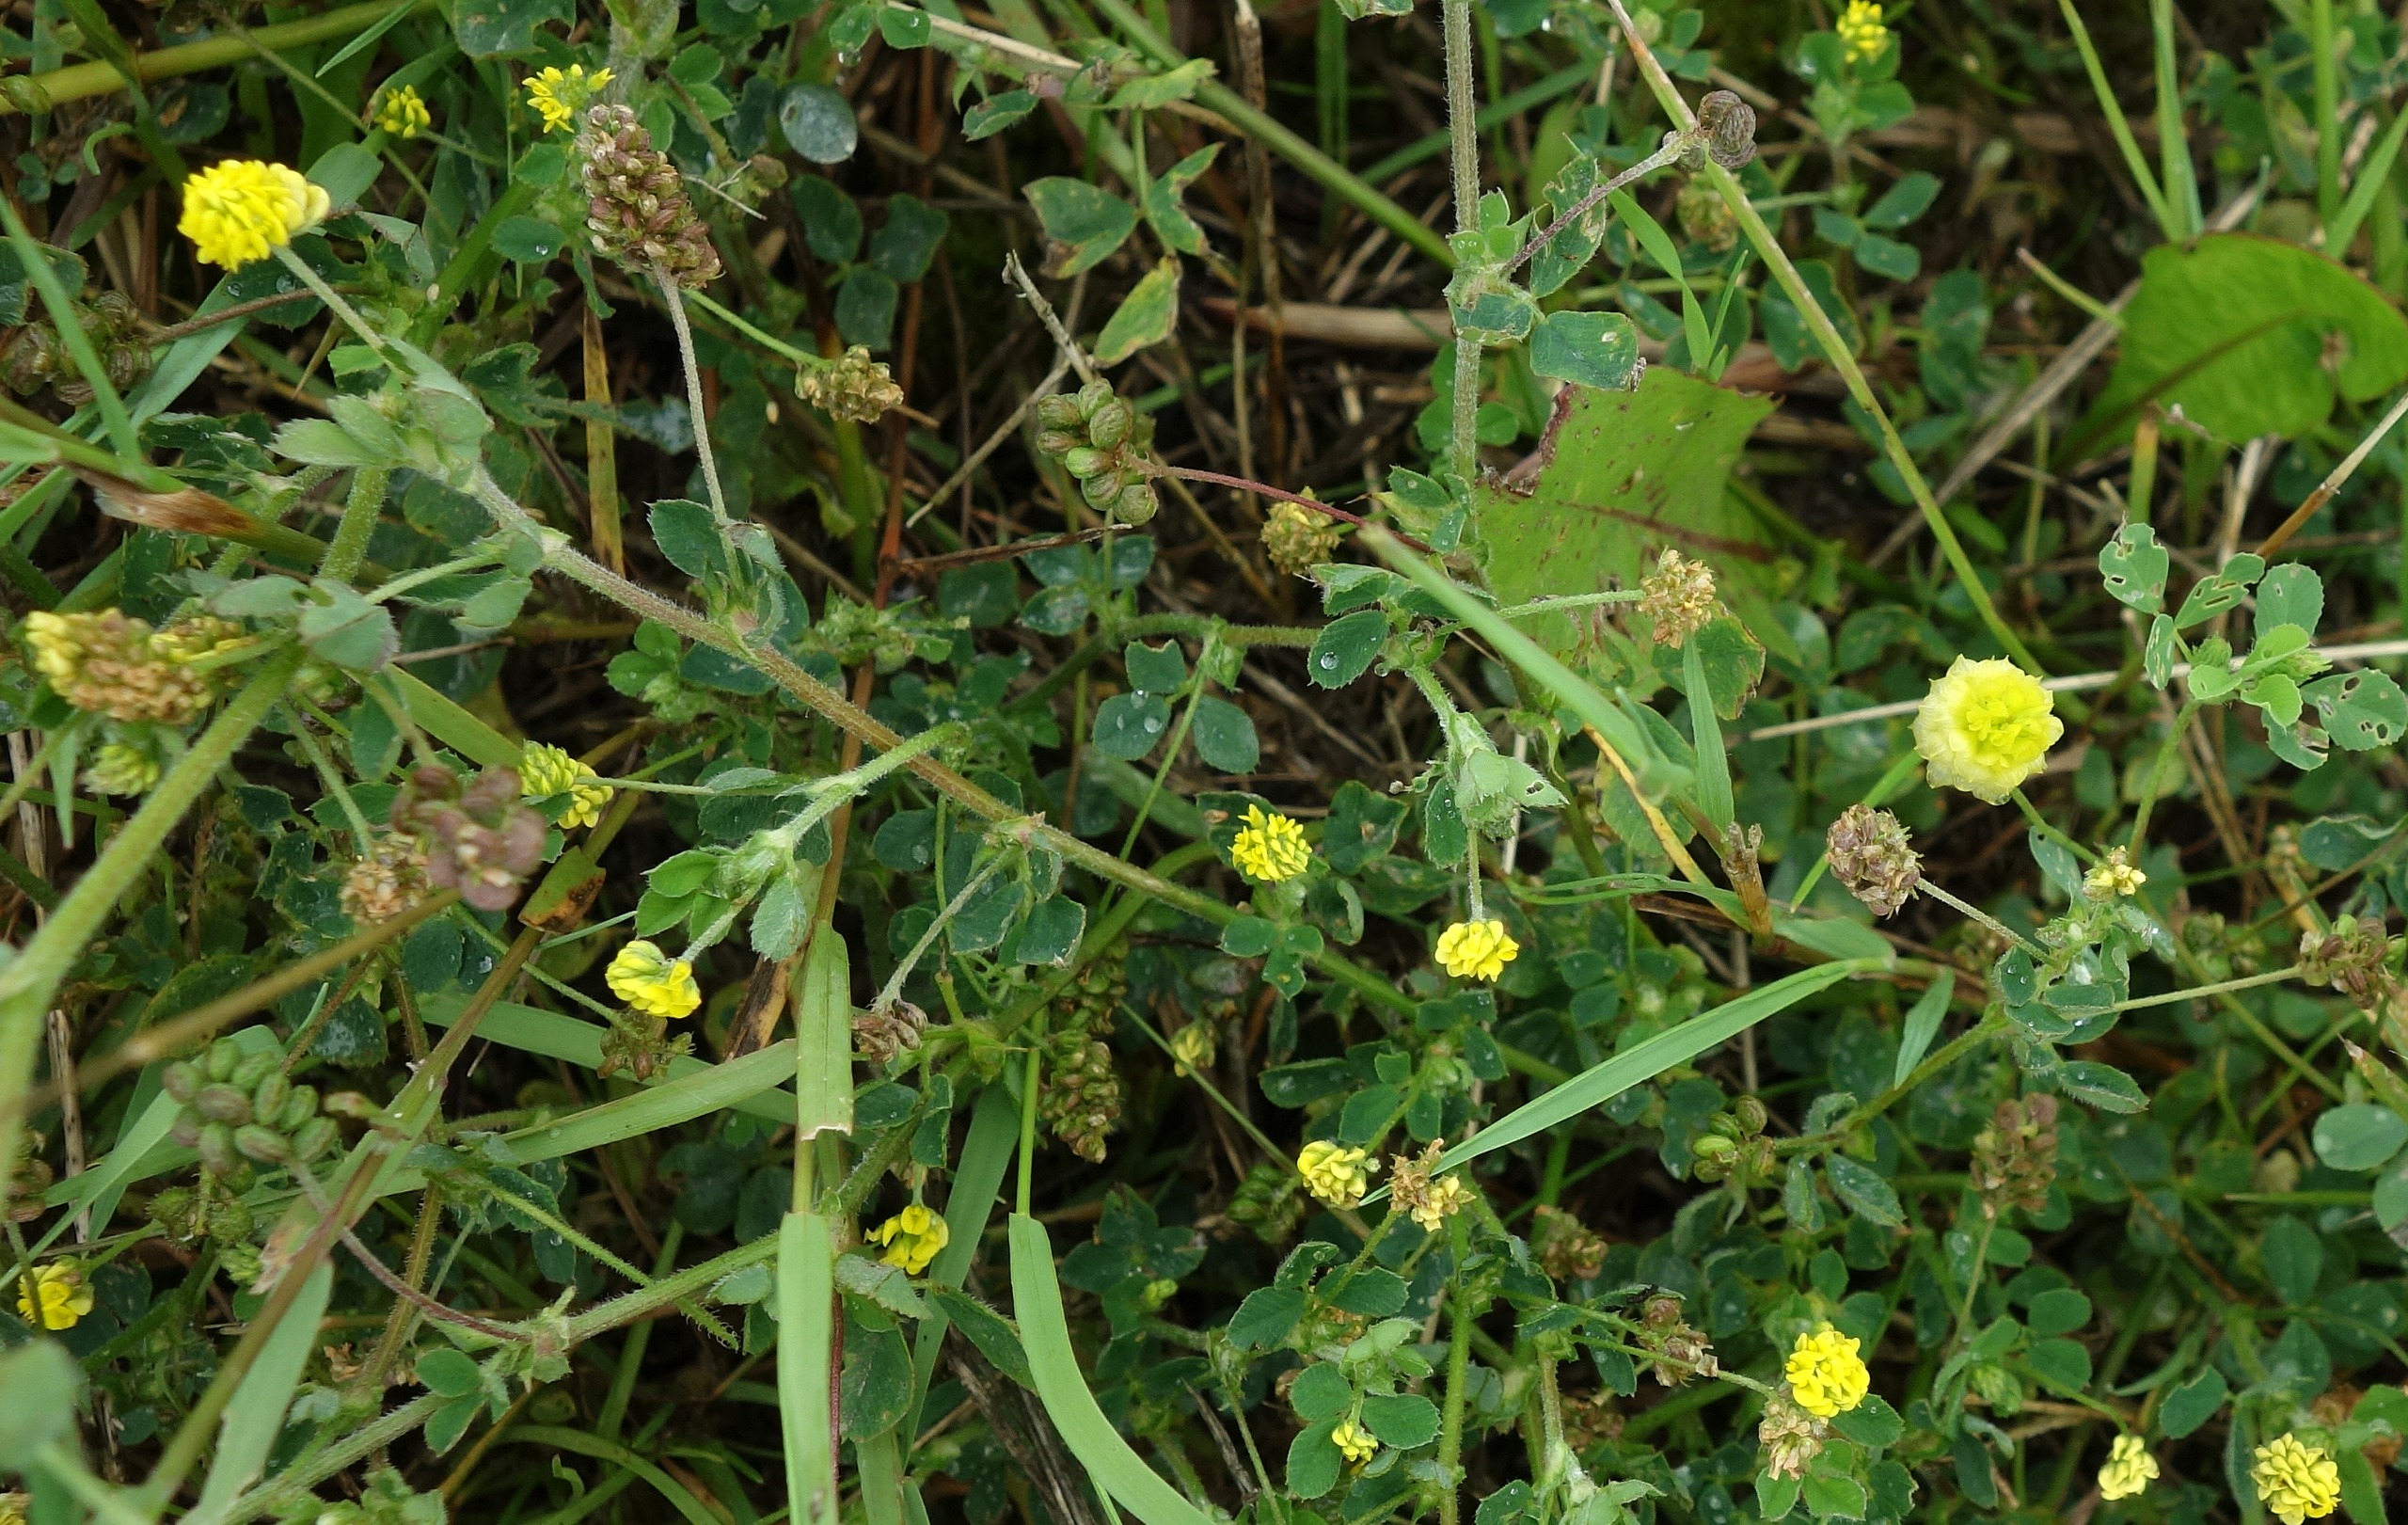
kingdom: Plantae
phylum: Tracheophyta
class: Magnoliopsida
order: Fabales
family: Fabaceae
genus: Medicago
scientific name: Medicago lupulina
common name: Humle-sneglebælg
